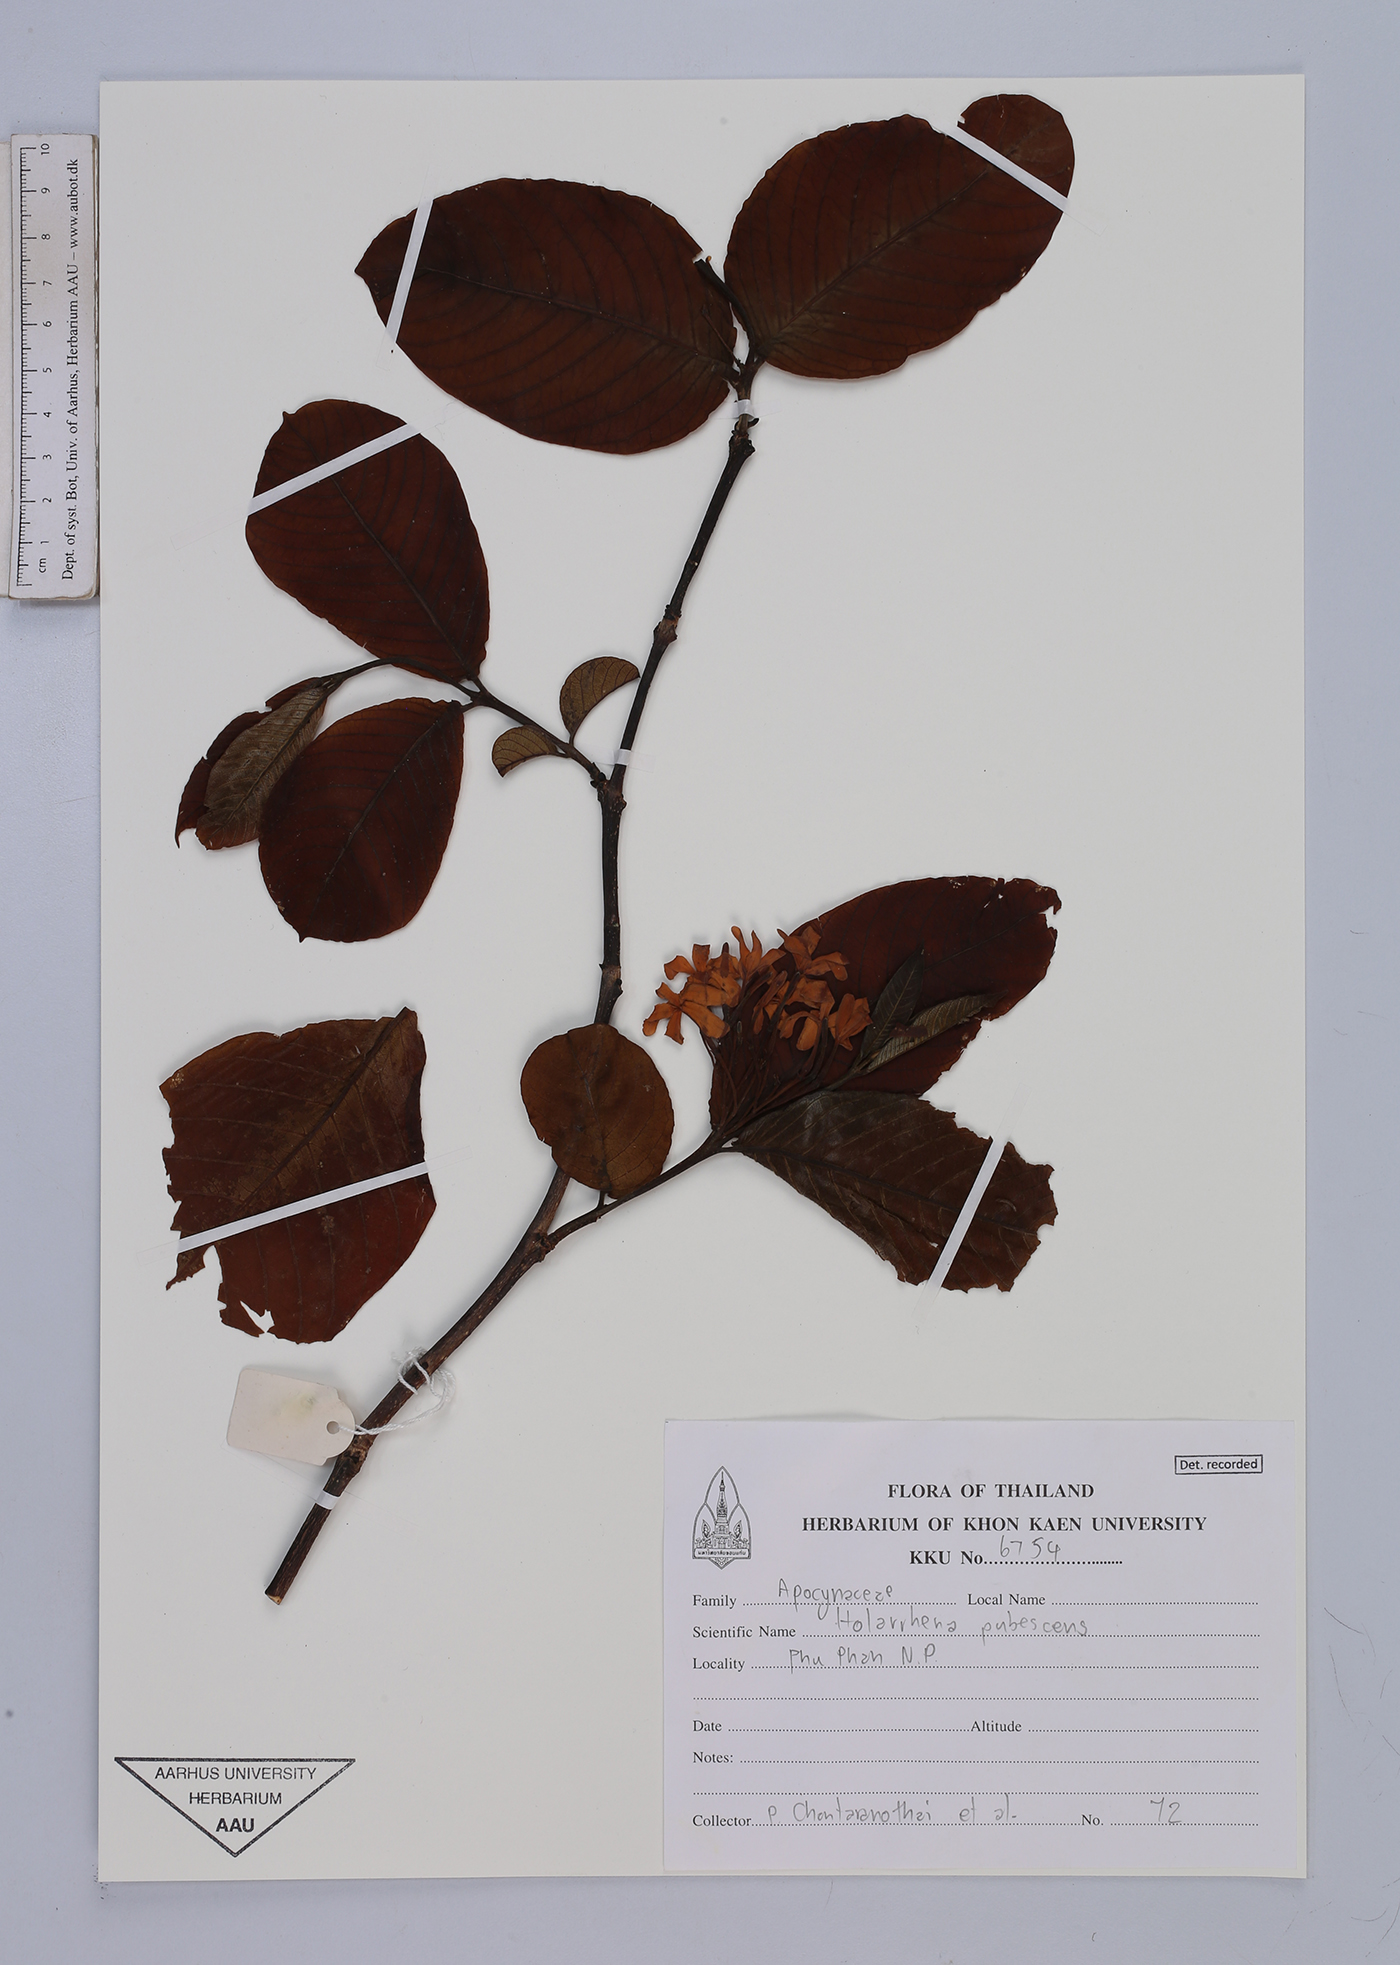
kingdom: Plantae
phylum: Tracheophyta
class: Magnoliopsida
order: Gentianales
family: Apocynaceae
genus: Holarrhena
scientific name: Holarrhena pubescens
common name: Bitter oleander
